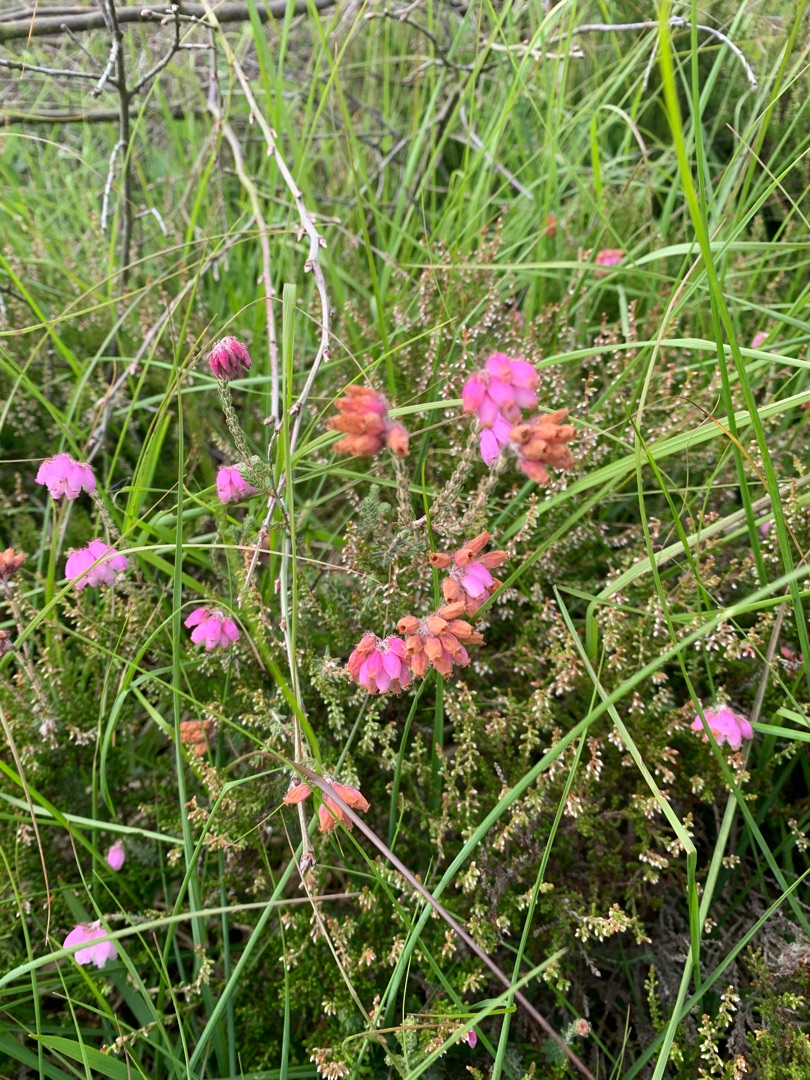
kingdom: Plantae
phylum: Tracheophyta
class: Magnoliopsida
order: Ericales
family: Ericaceae
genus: Erica
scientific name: Erica tetralix
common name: Klokkelyng
